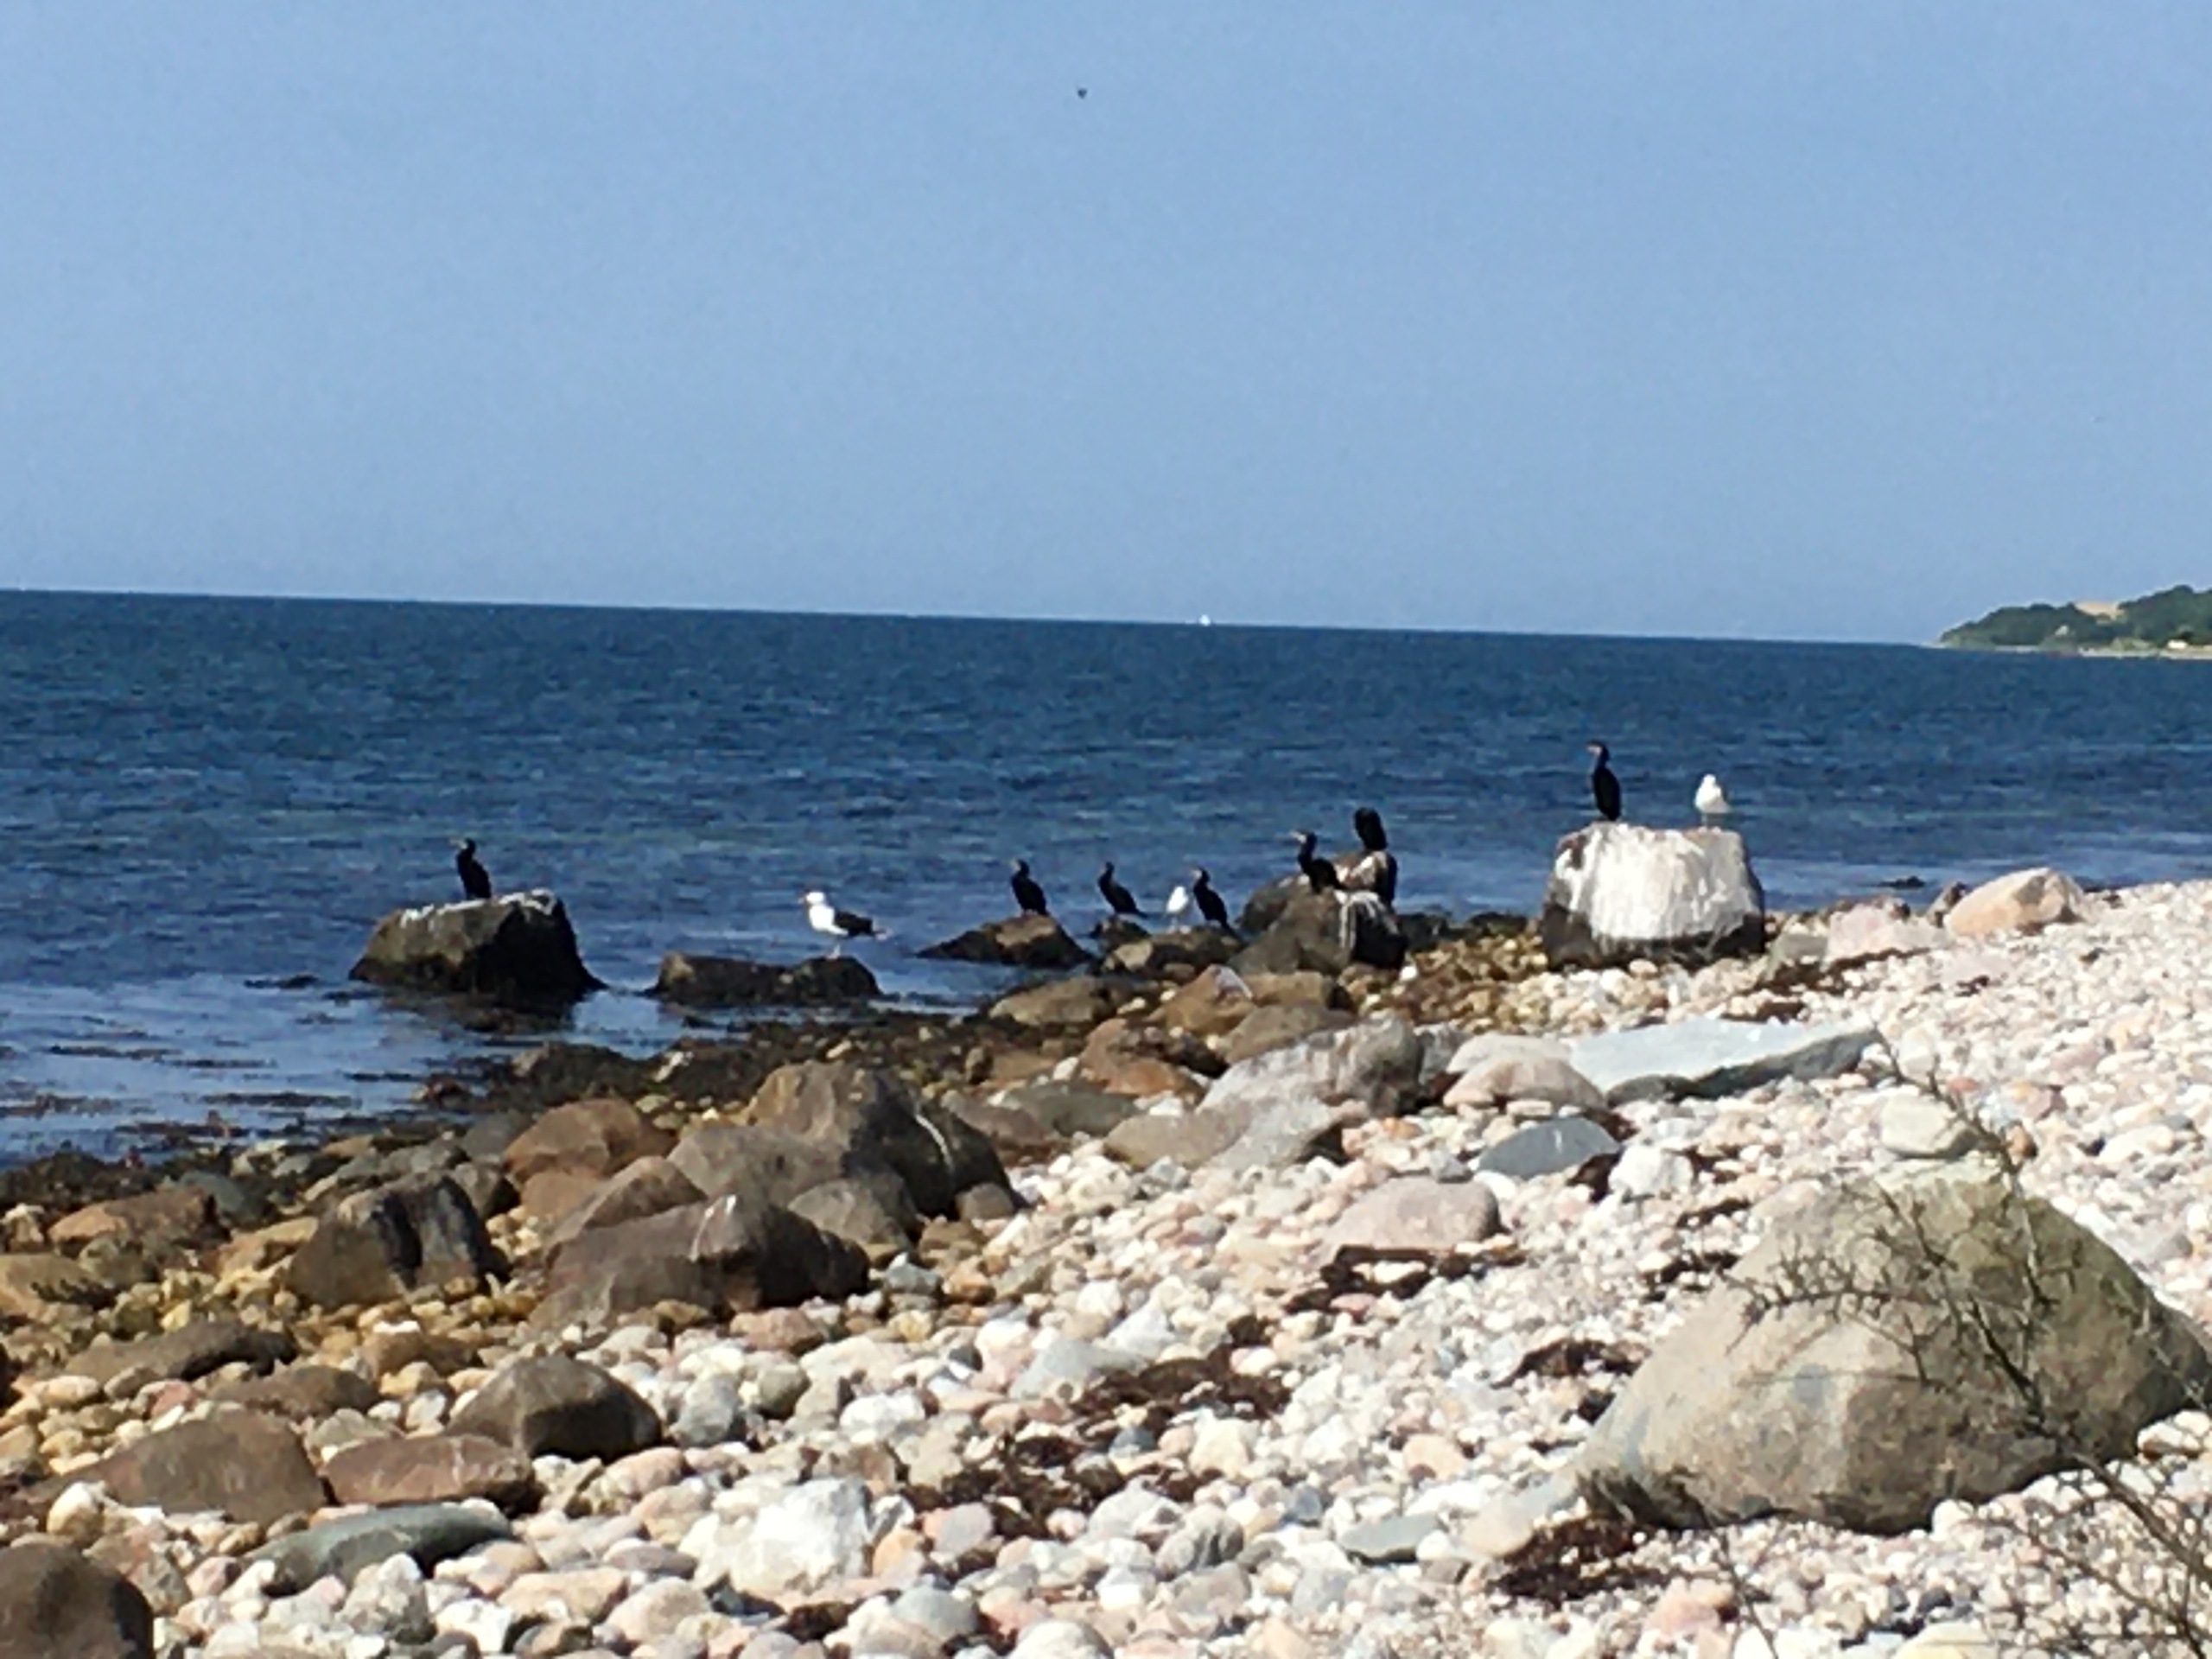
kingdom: Animalia
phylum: Chordata
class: Aves
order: Charadriiformes
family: Laridae
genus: Larus
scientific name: Larus marinus
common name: Svartbag
